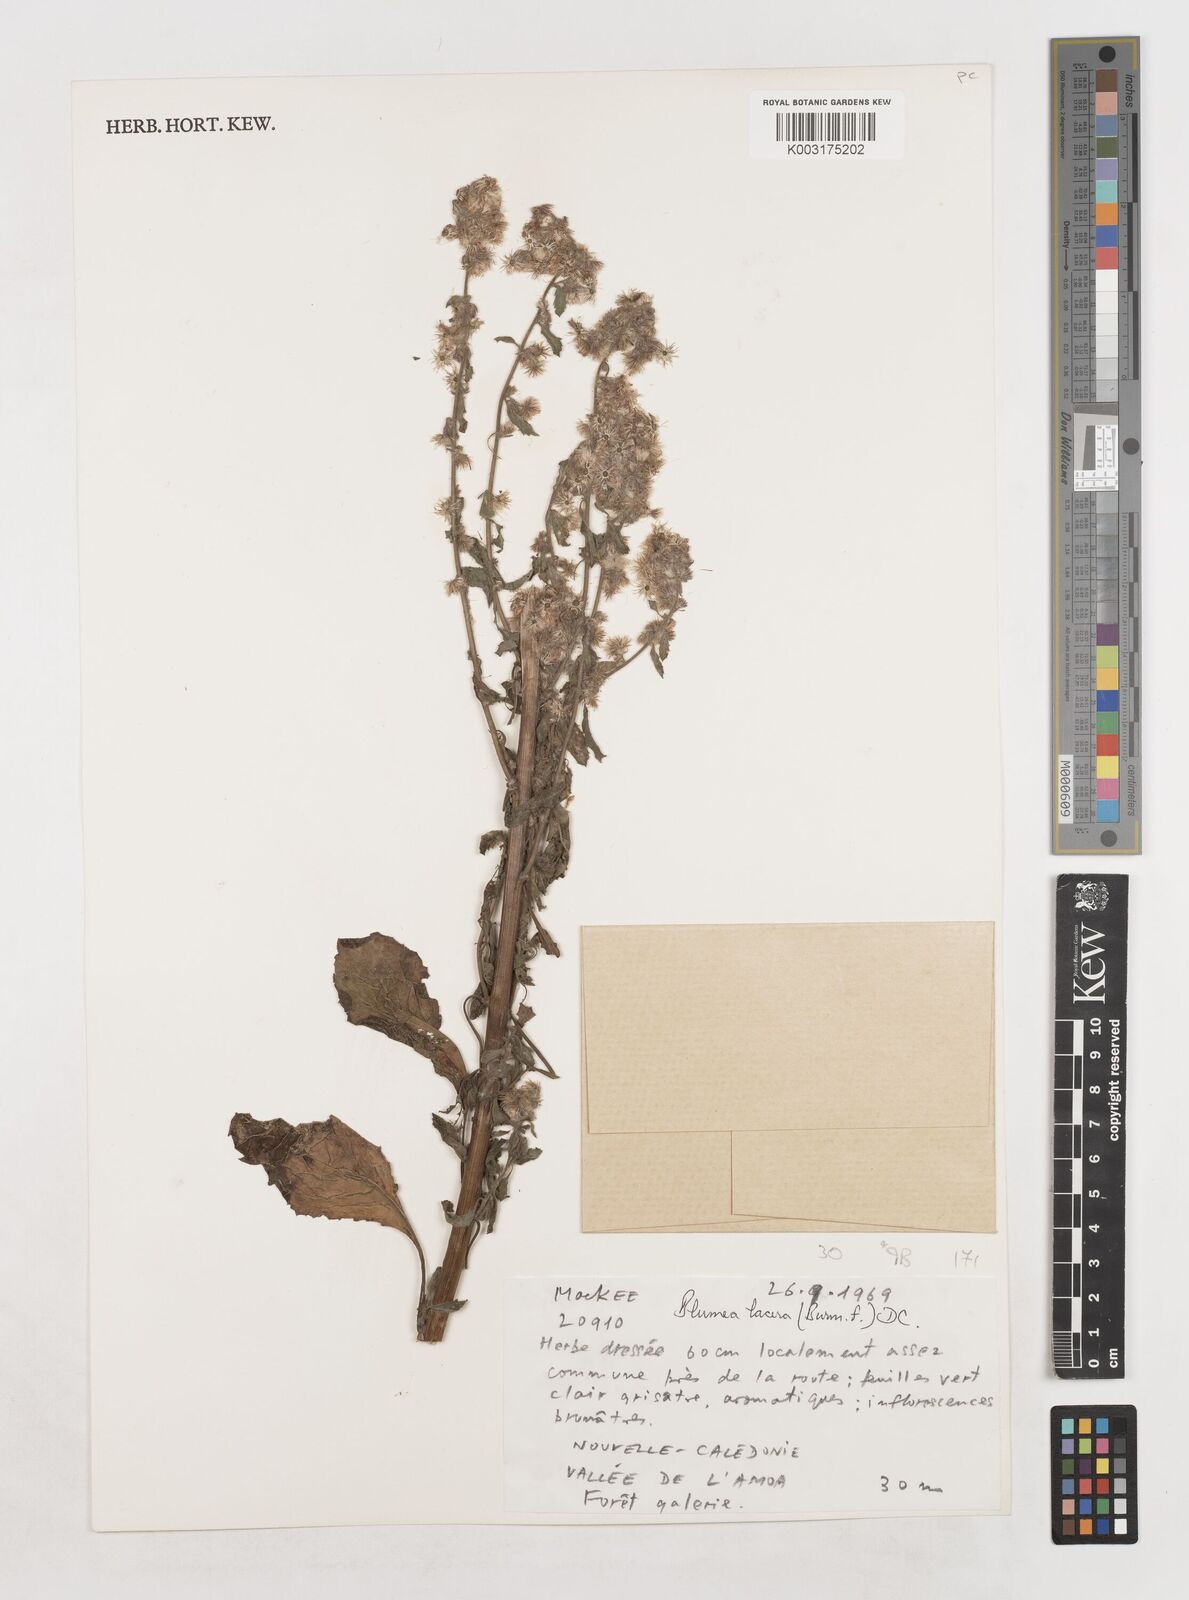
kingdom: Plantae
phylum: Tracheophyta
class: Magnoliopsida
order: Asterales
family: Asteraceae
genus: Blumea
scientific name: Blumea lacera
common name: Malay blumea
